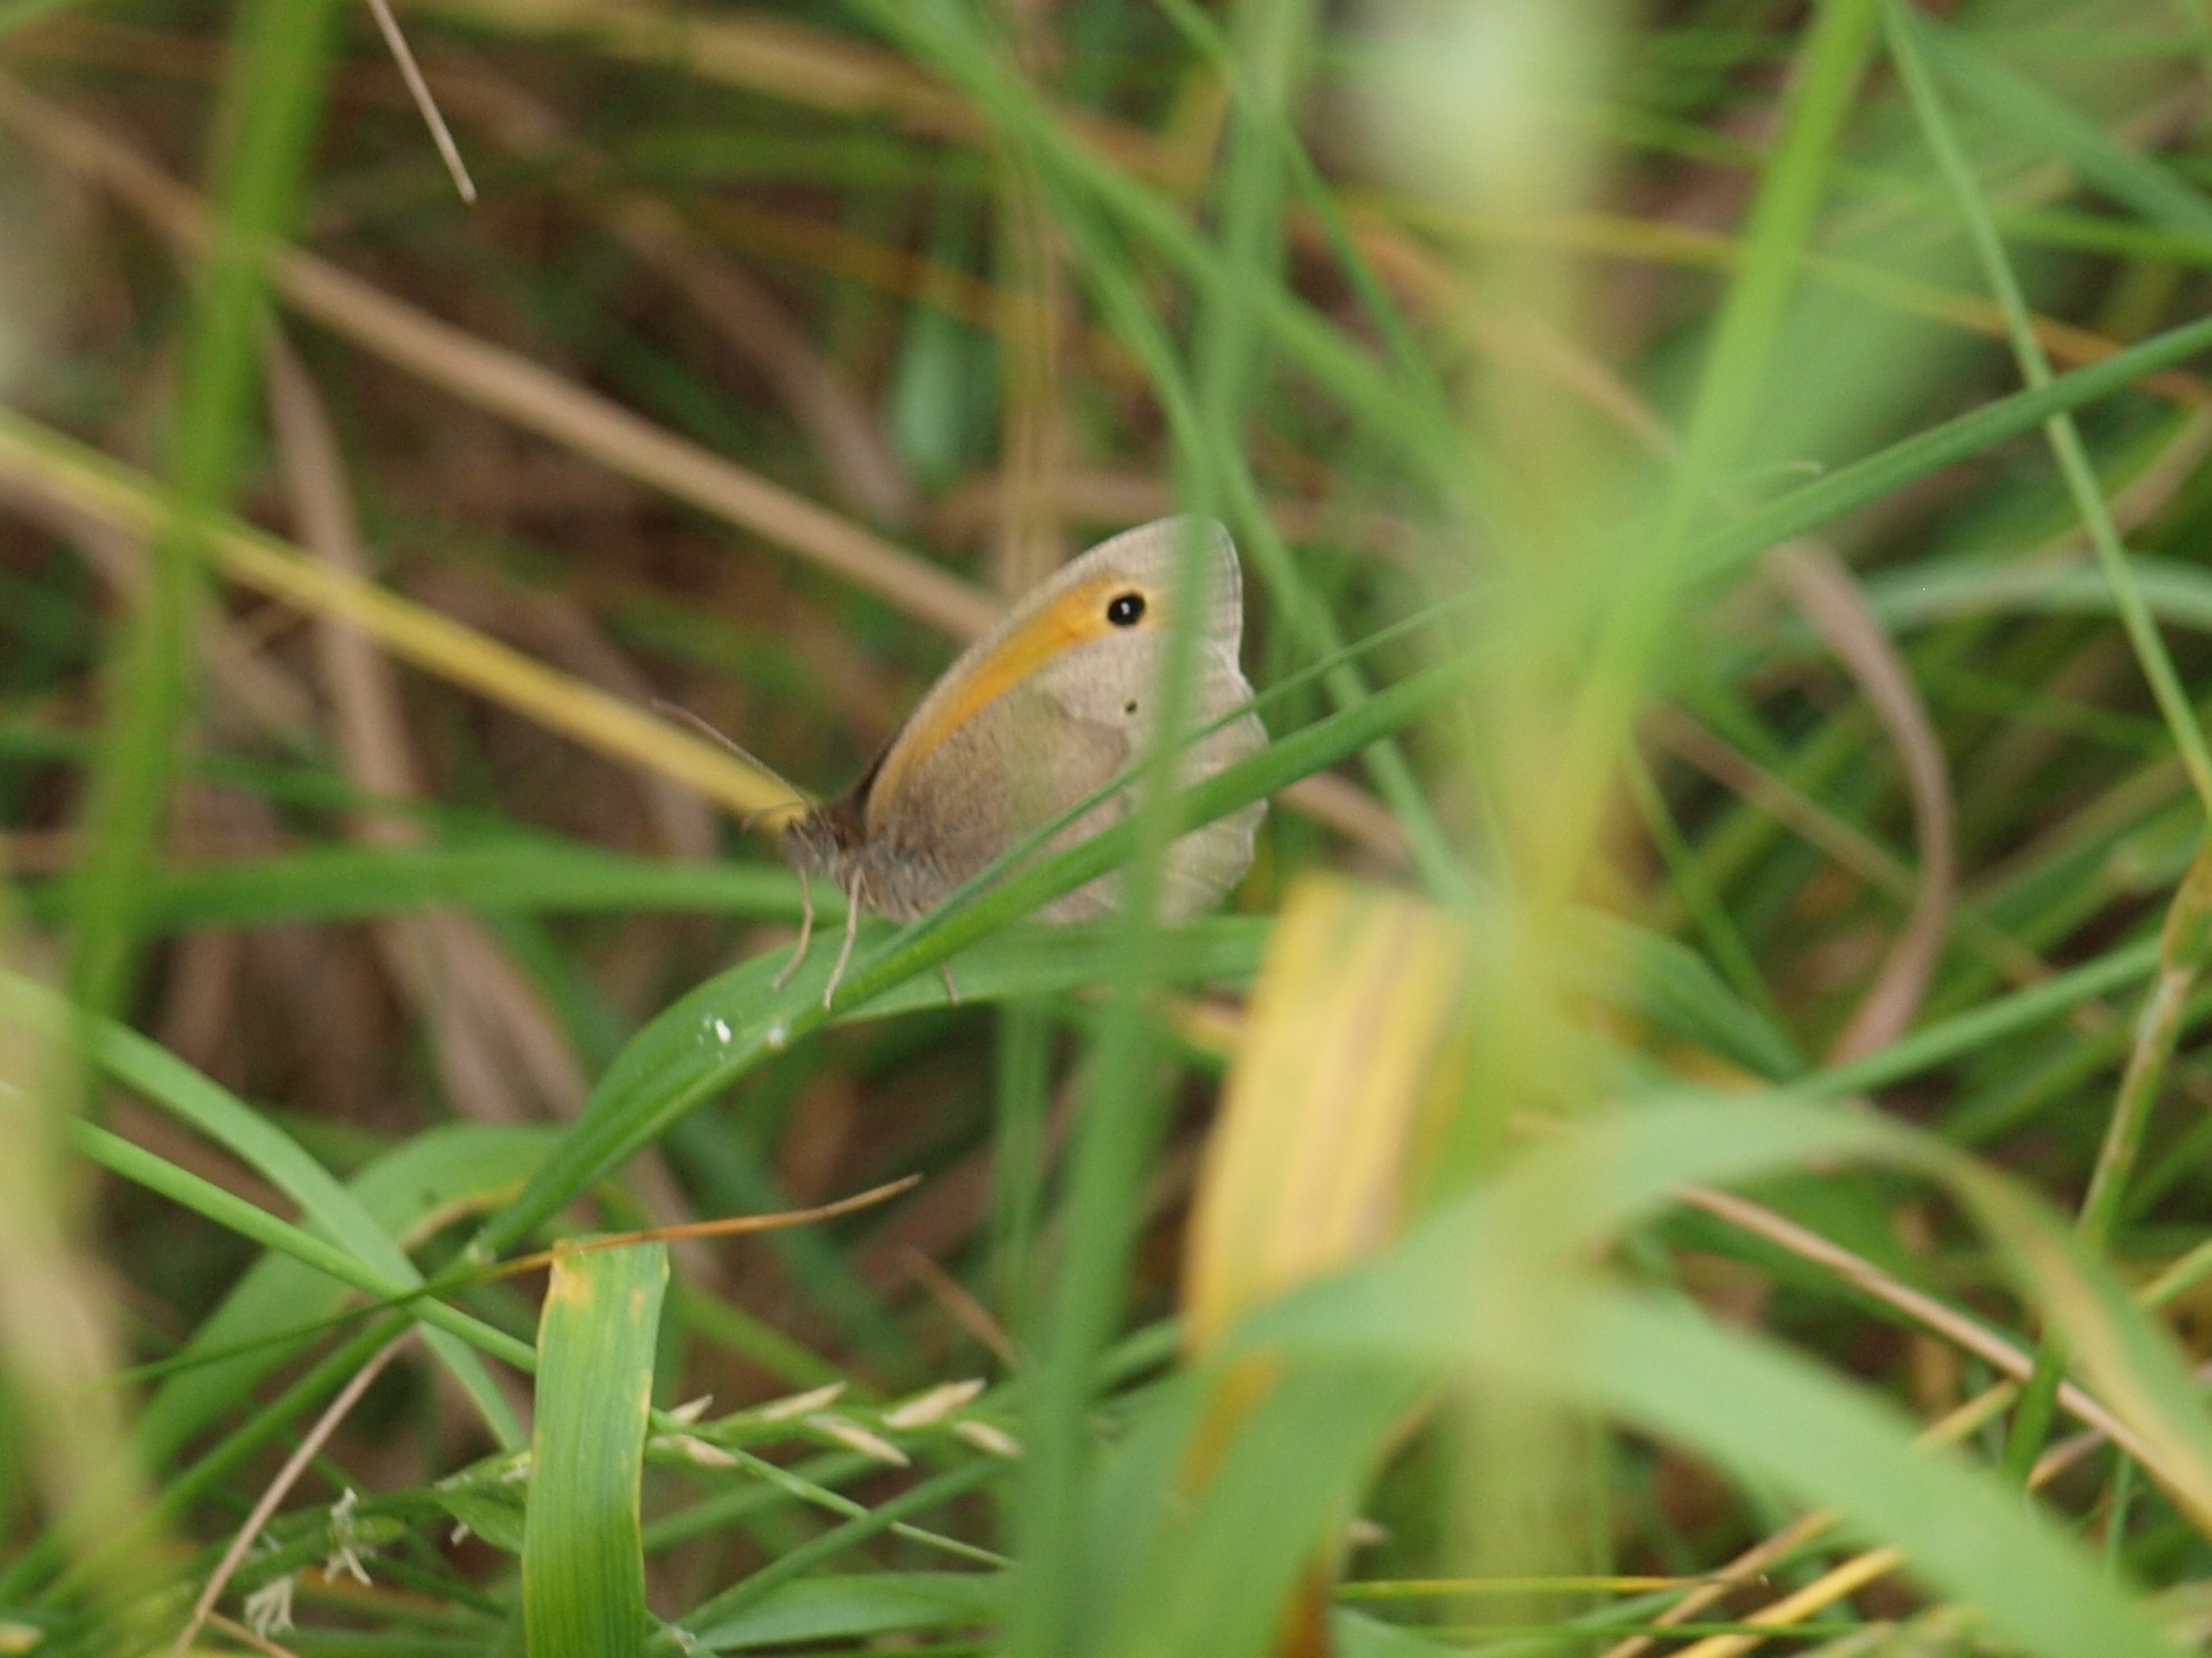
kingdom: Animalia
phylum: Arthropoda
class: Insecta
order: Lepidoptera
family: Nymphalidae
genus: Maniola
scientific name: Maniola jurtina
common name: Græsrandøje
